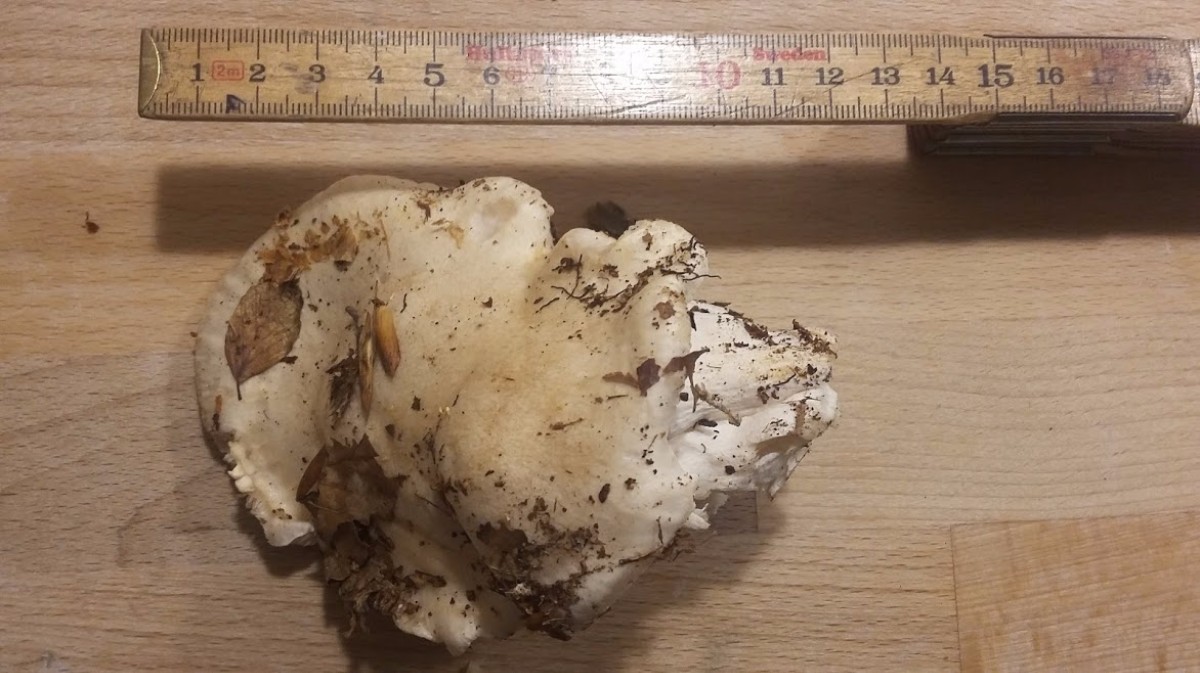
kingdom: Fungi
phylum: Basidiomycota
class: Agaricomycetes
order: Agaricales
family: Entolomataceae
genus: Clitopilus
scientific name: Clitopilus prunulus
